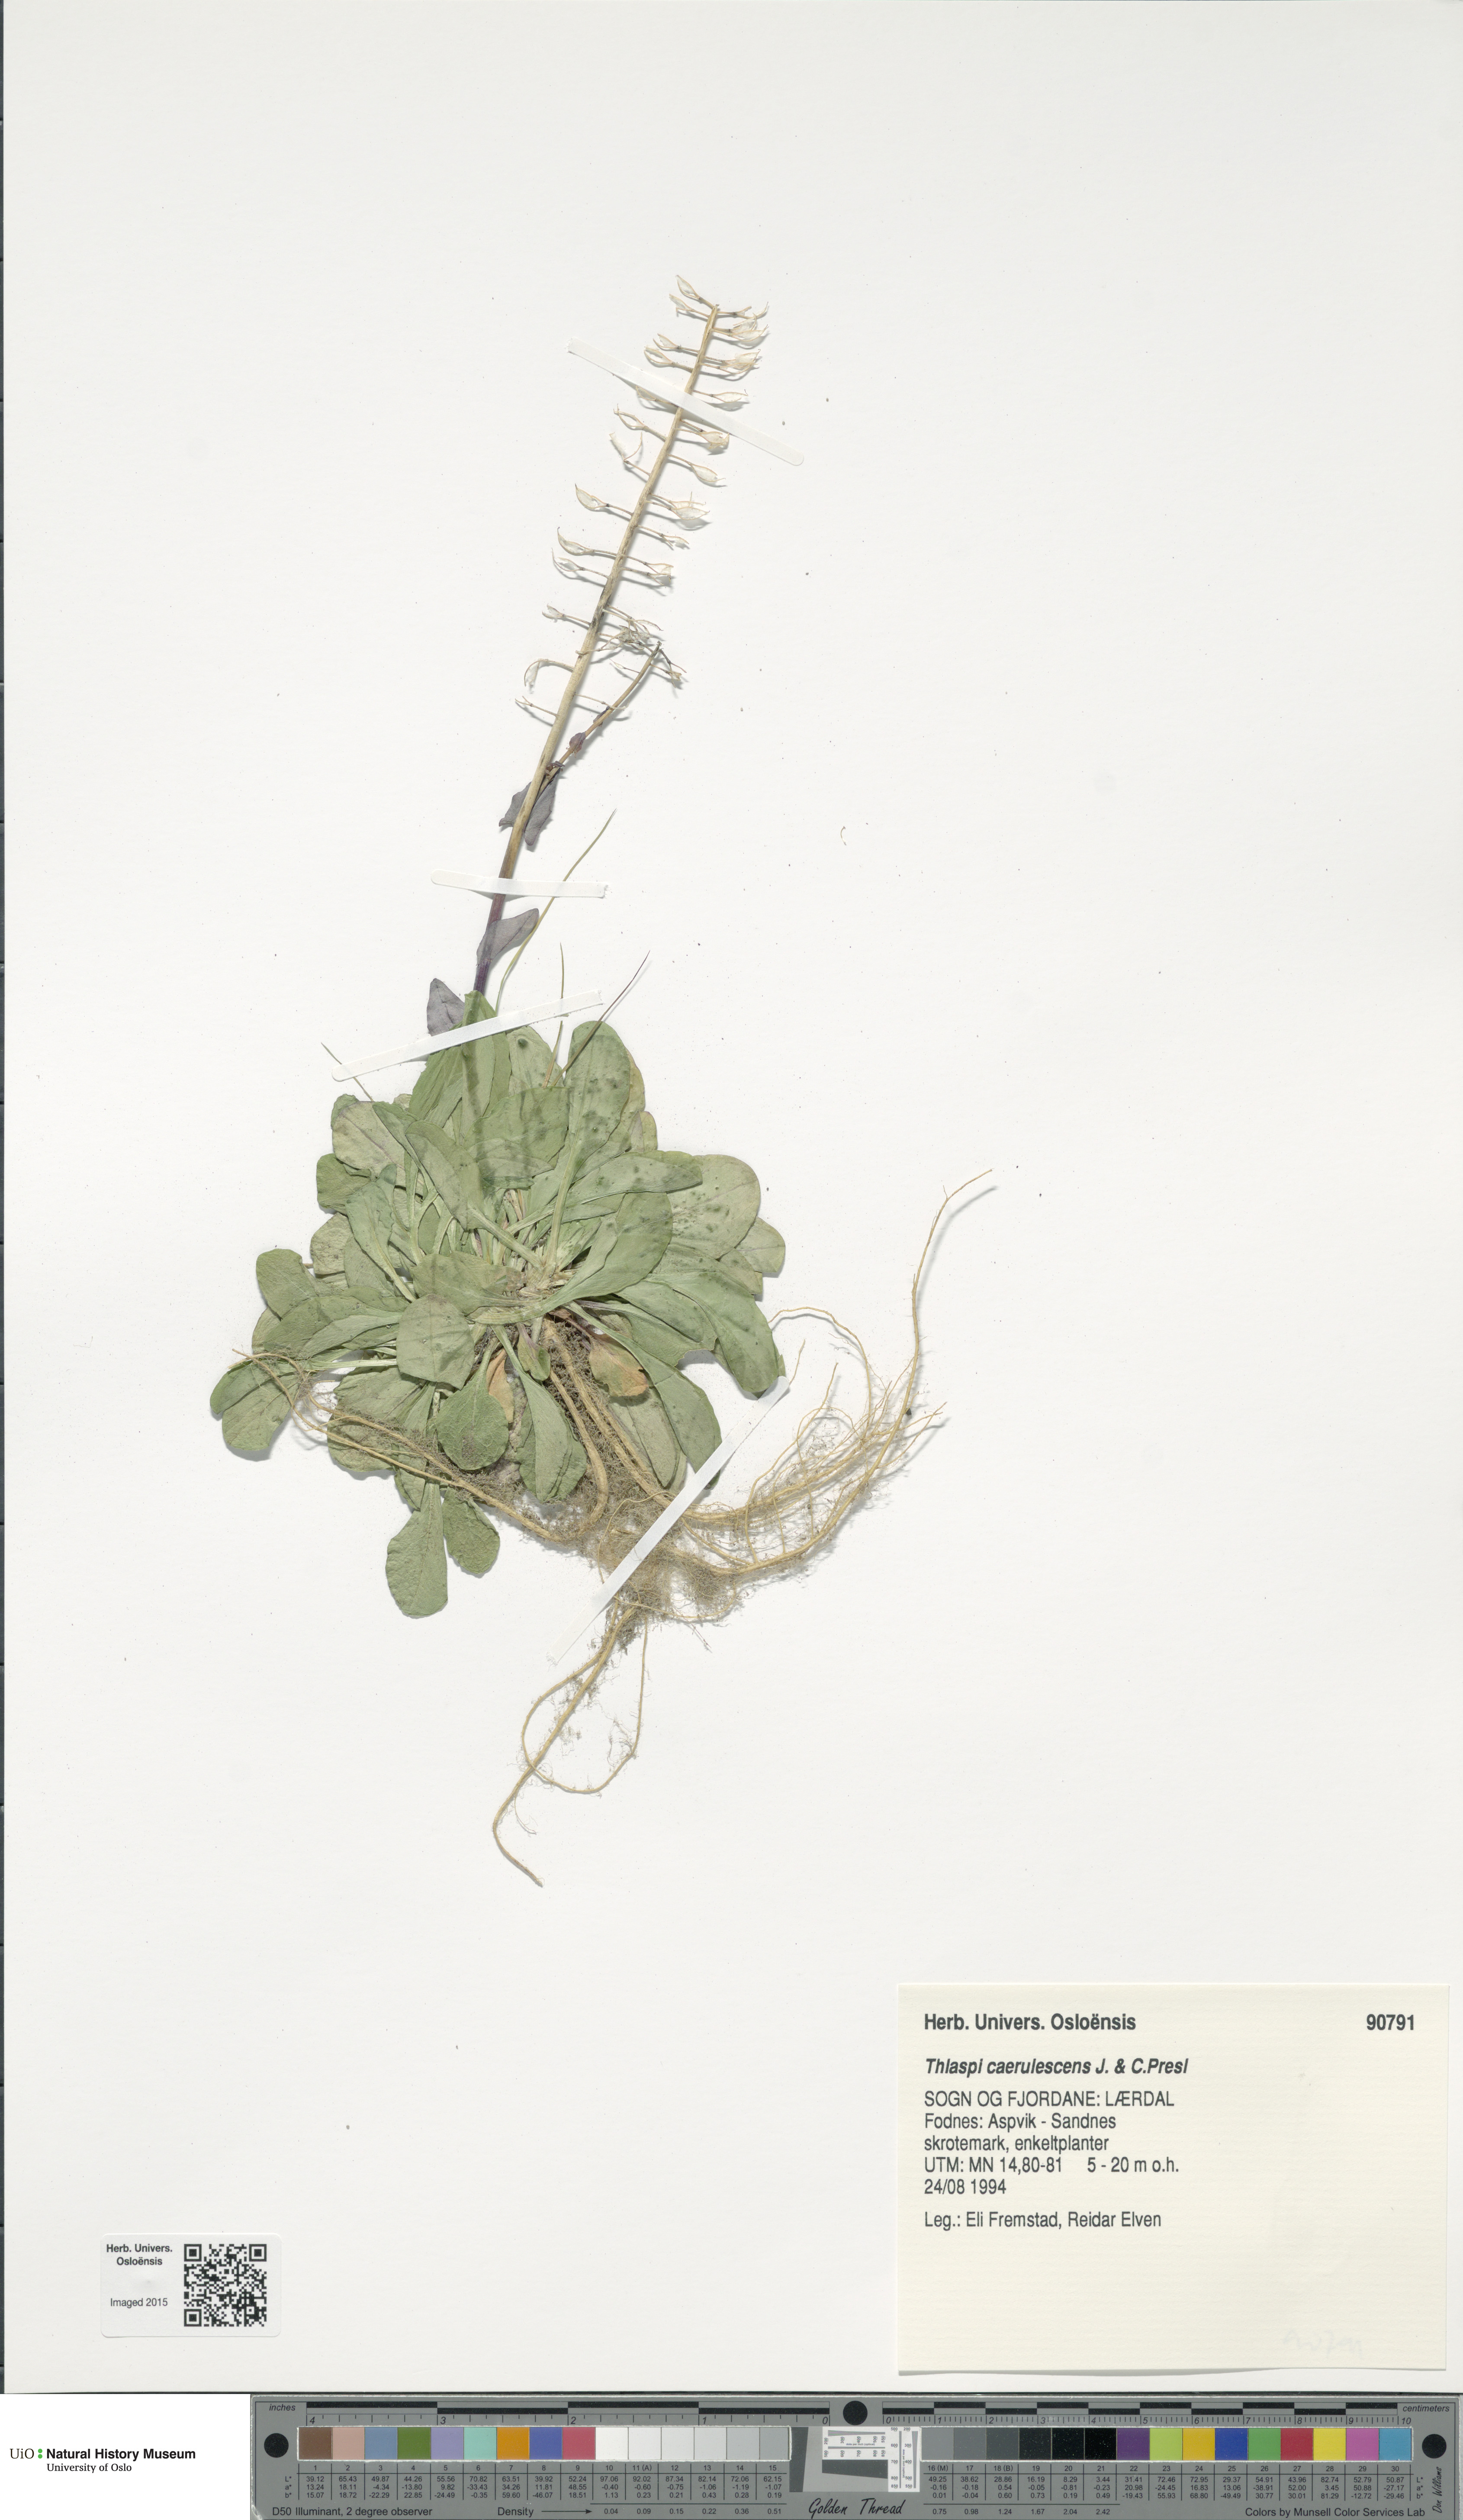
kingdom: Plantae
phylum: Tracheophyta
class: Magnoliopsida
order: Brassicales
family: Brassicaceae
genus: Noccaea
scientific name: Noccaea caerulescens
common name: Alpine pennycress
